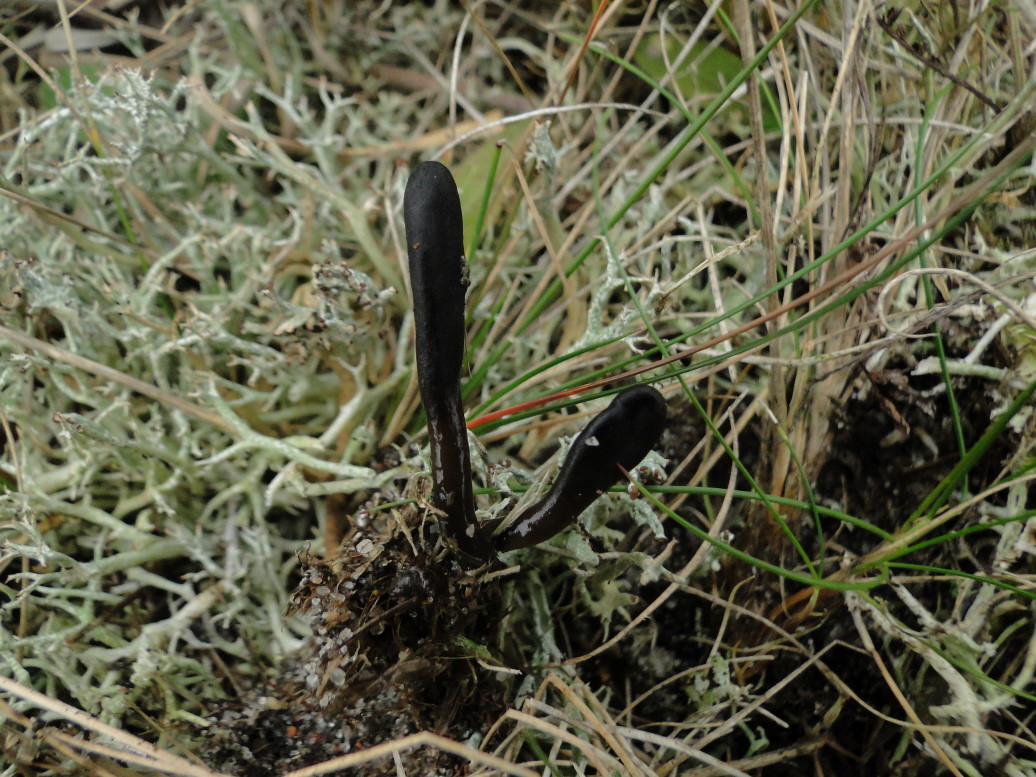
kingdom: Fungi
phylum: Ascomycota
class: Geoglossomycetes
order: Geoglossales
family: Geoglossaceae
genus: Glutinoglossum
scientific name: Glutinoglossum glutinosum
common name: slimet jordtunge
